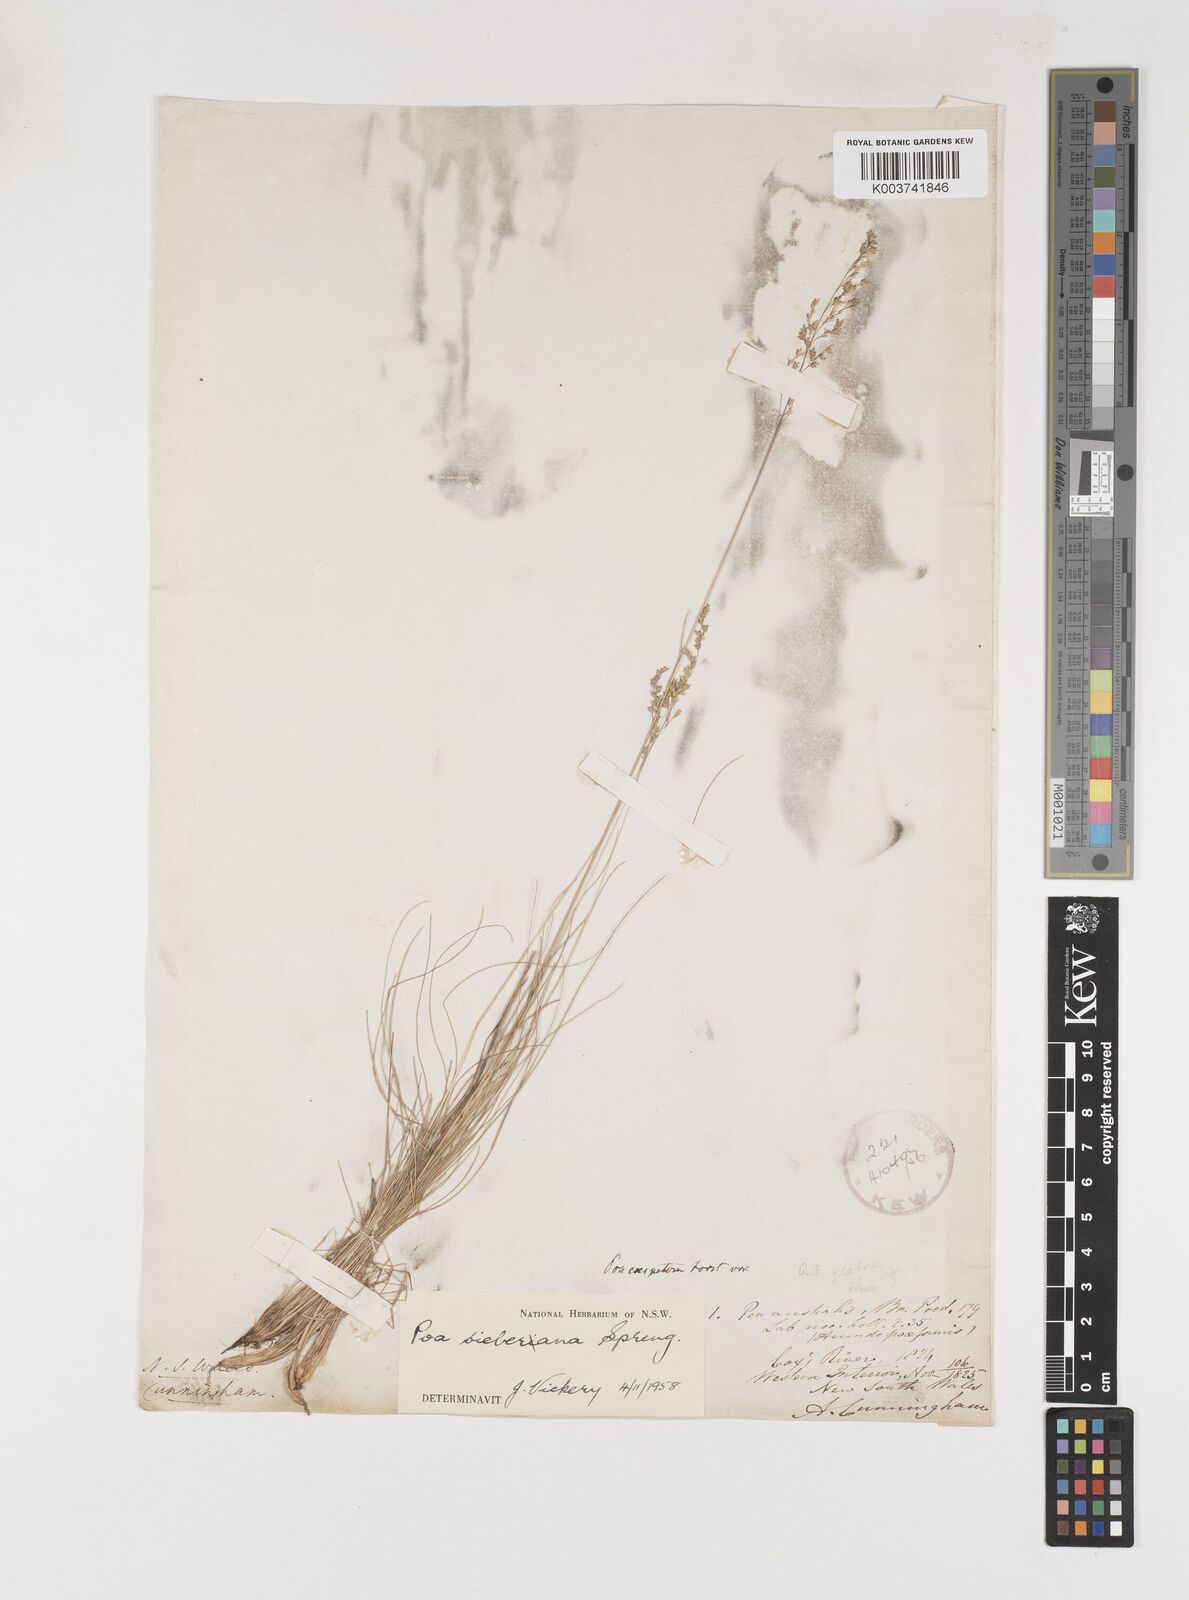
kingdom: Plantae
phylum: Tracheophyta
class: Liliopsida
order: Poales
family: Poaceae
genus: Poa
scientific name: Poa sieberiana
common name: Tussock poa
